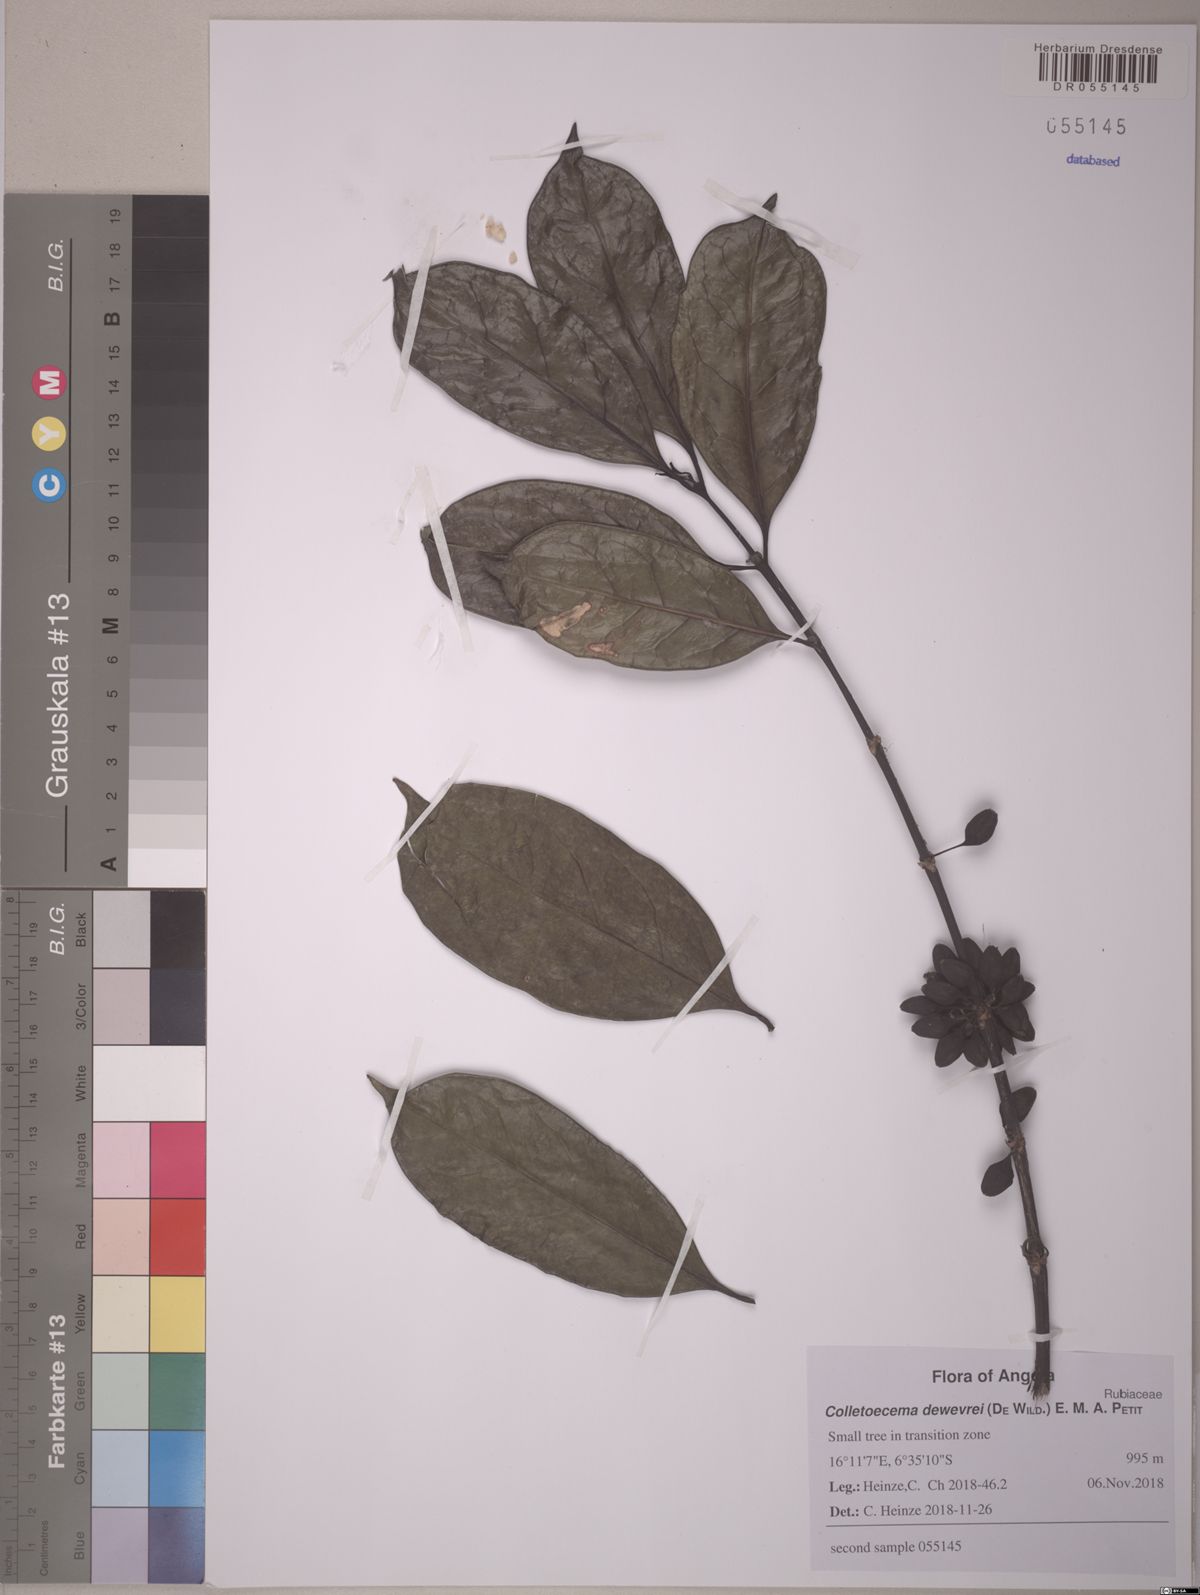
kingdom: Plantae
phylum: Tracheophyta
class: Magnoliopsida
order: Gentianales
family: Rubiaceae
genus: Colletoecema
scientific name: Colletoecema tortistilum
